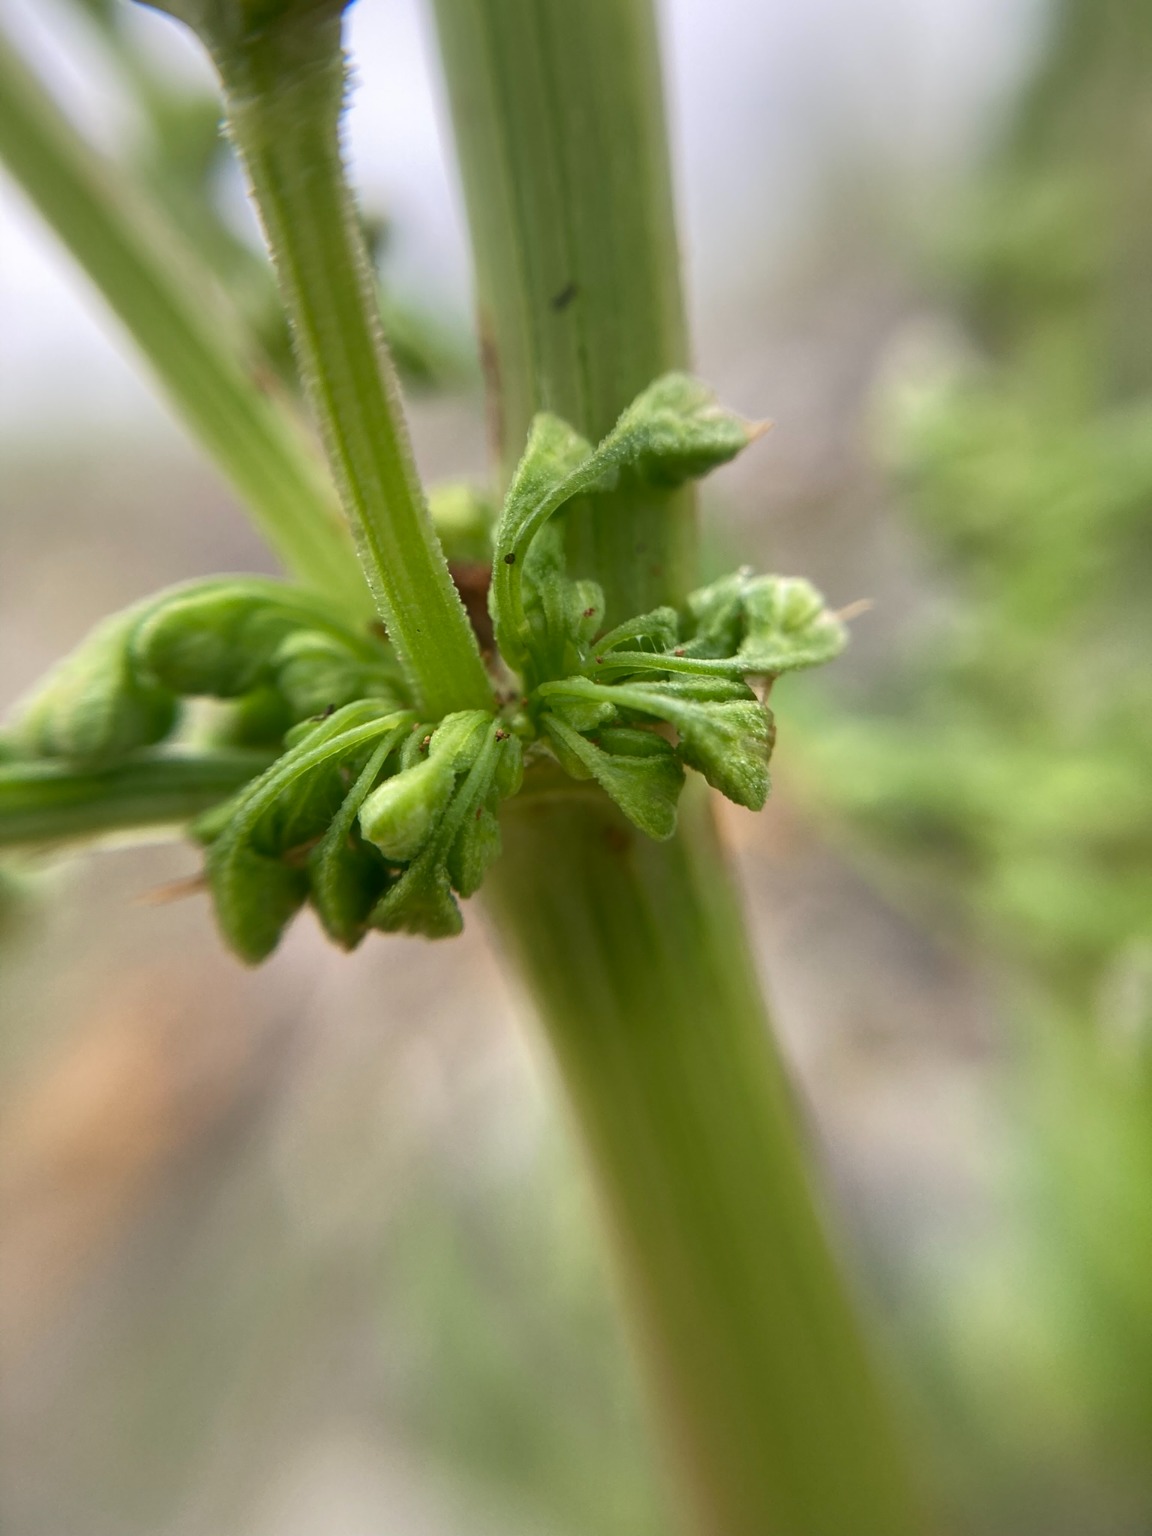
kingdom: Plantae
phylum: Tracheophyta
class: Magnoliopsida
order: Caryophyllales
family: Polygonaceae
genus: Rumex
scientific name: Rumex crispus
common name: Kruset skræppe
